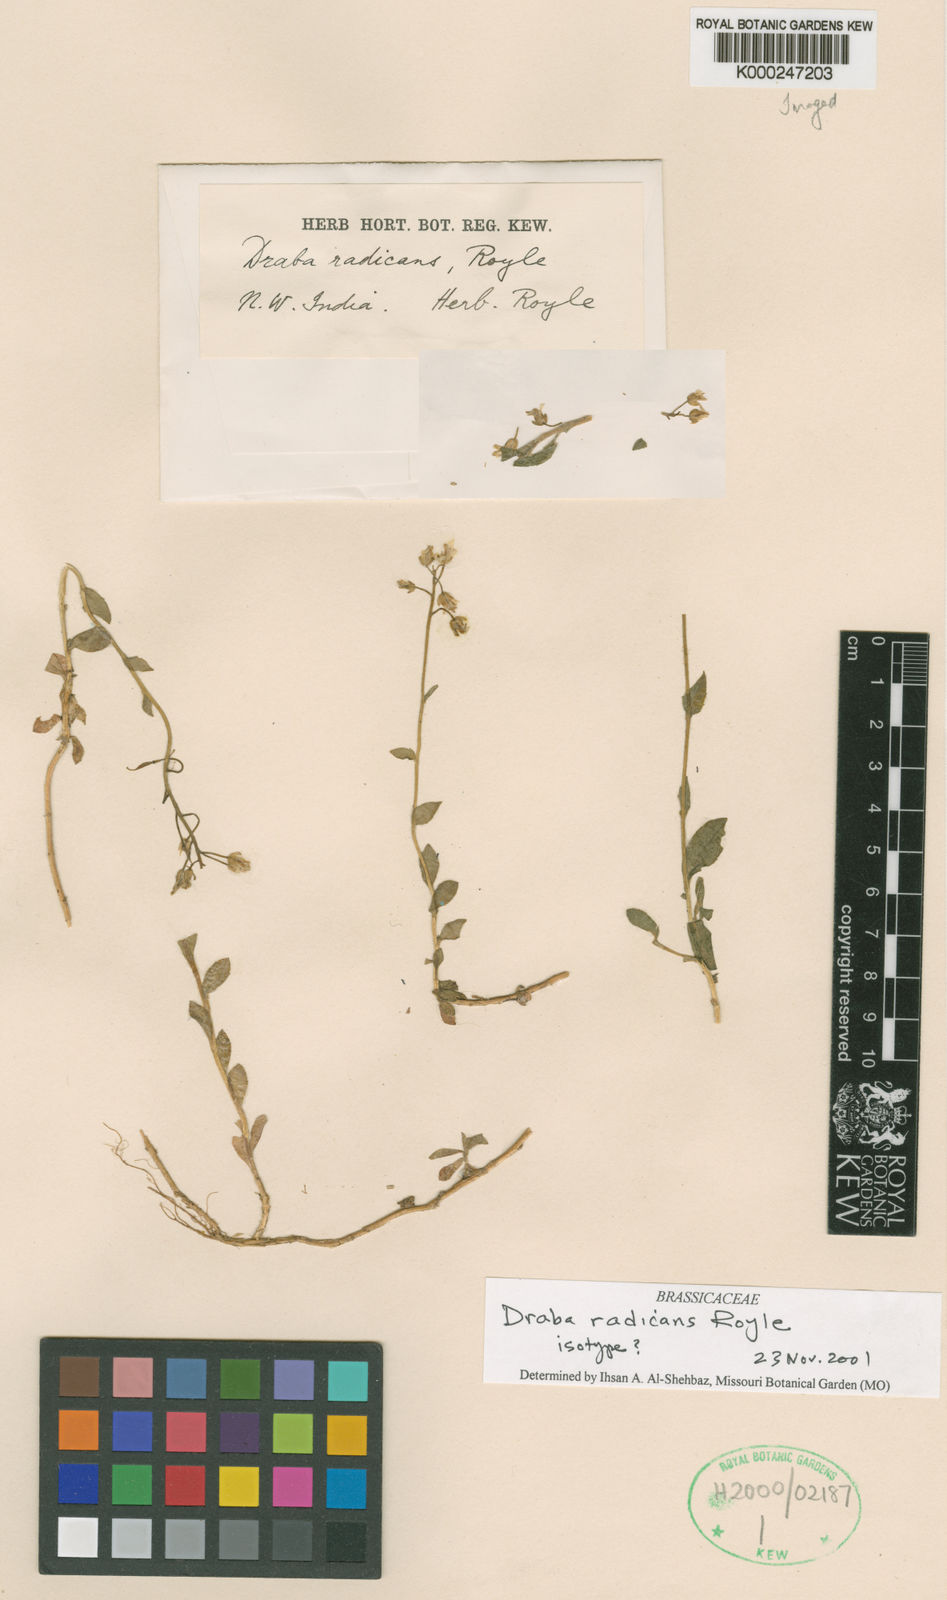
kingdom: Plantae
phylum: Tracheophyta
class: Magnoliopsida
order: Brassicales
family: Brassicaceae
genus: Draba
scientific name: Draba radicans
